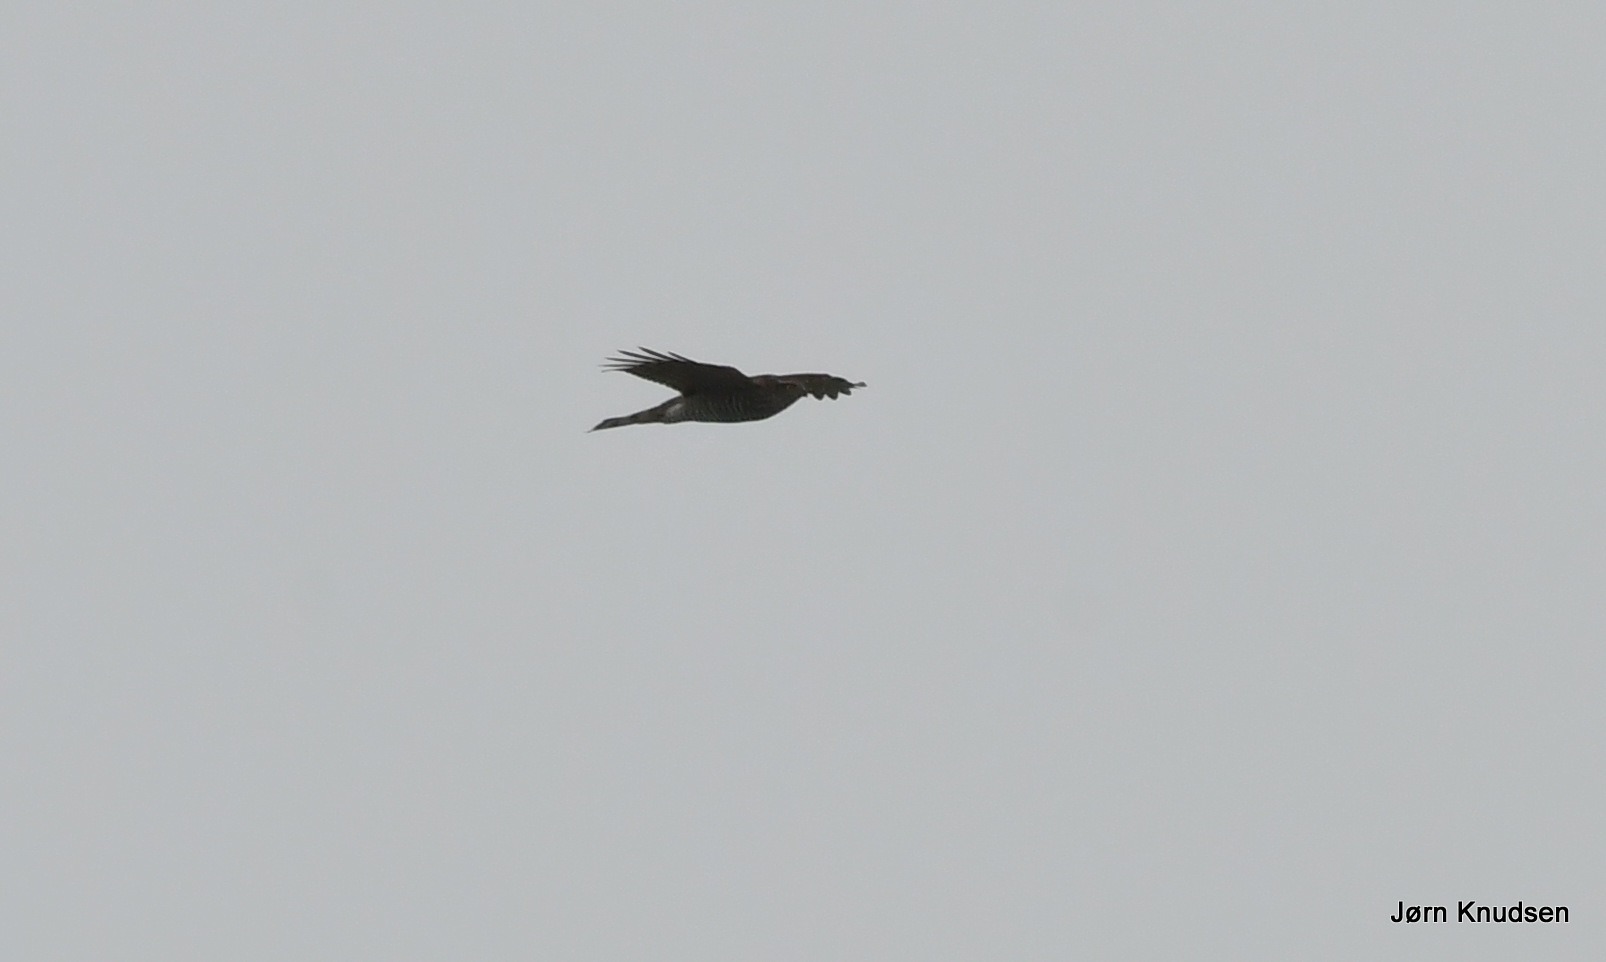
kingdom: Animalia
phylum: Chordata
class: Aves
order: Accipitriformes
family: Accipitridae
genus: Accipiter
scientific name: Accipiter nisus
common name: Spurvehøg
